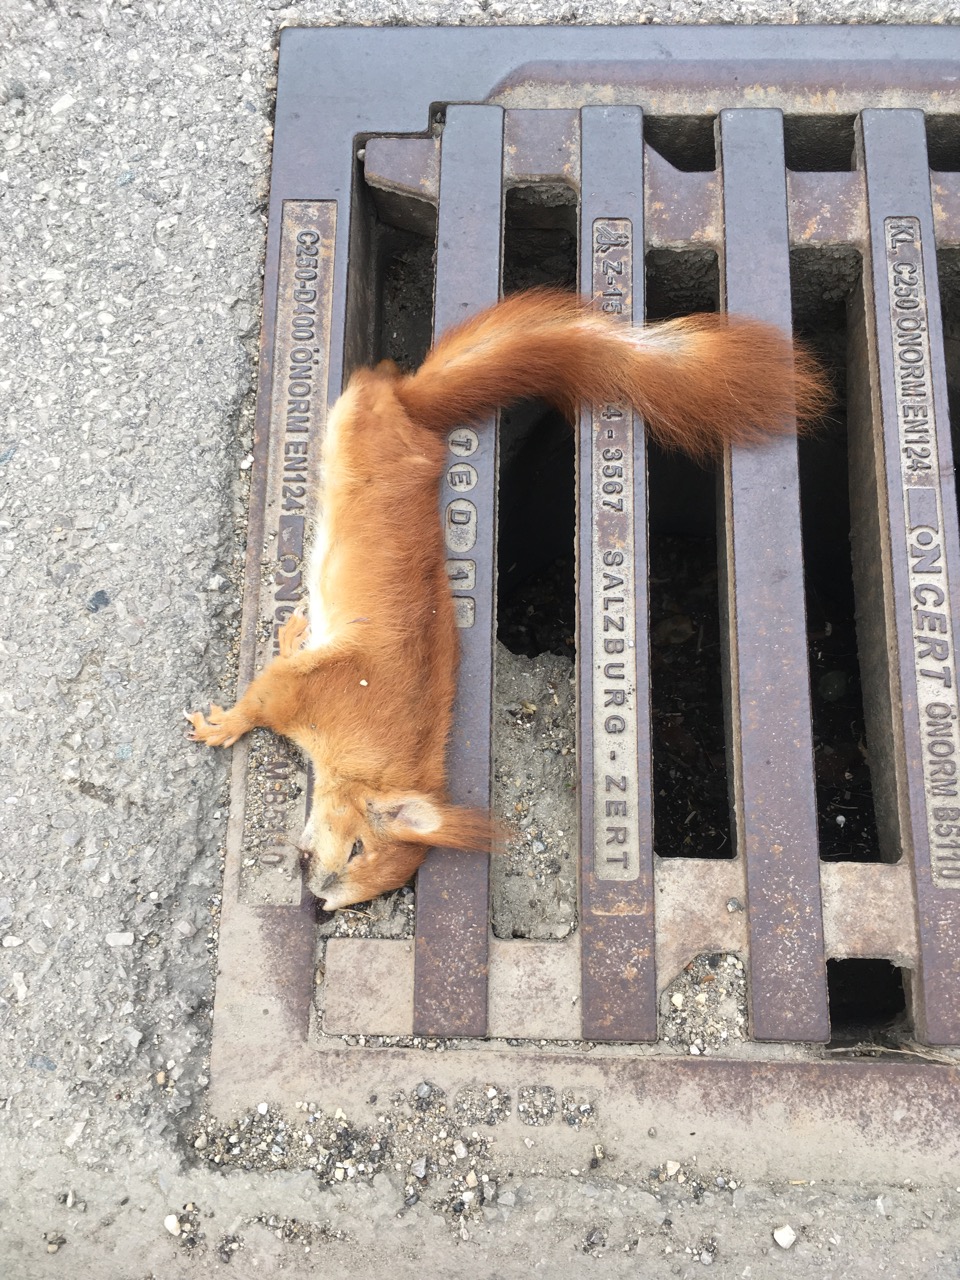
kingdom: Animalia
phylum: Chordata
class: Mammalia
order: Rodentia
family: Sciuridae
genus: Sciurus
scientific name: Sciurus vulgaris
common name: Eurasian red squirrel
